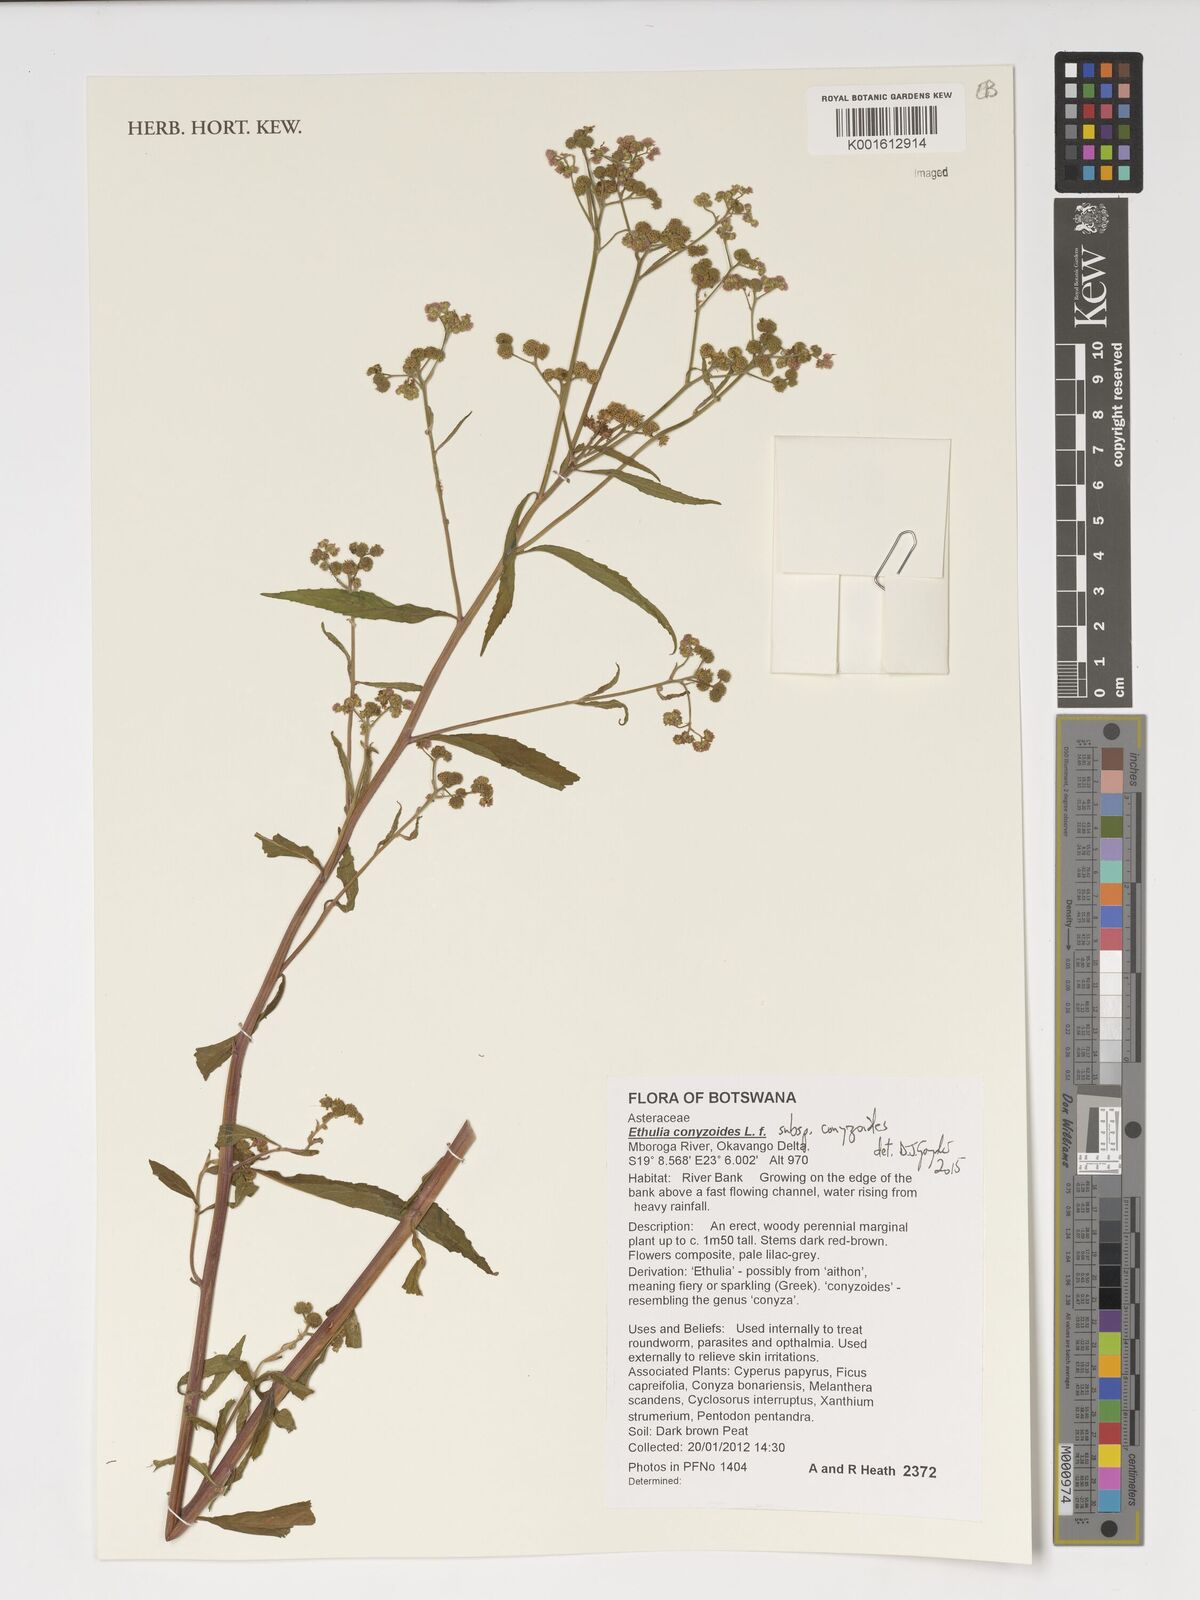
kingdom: Plantae
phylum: Tracheophyta
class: Magnoliopsida
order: Asterales
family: Asteraceae
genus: Ethulia
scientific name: Ethulia conyzoides
